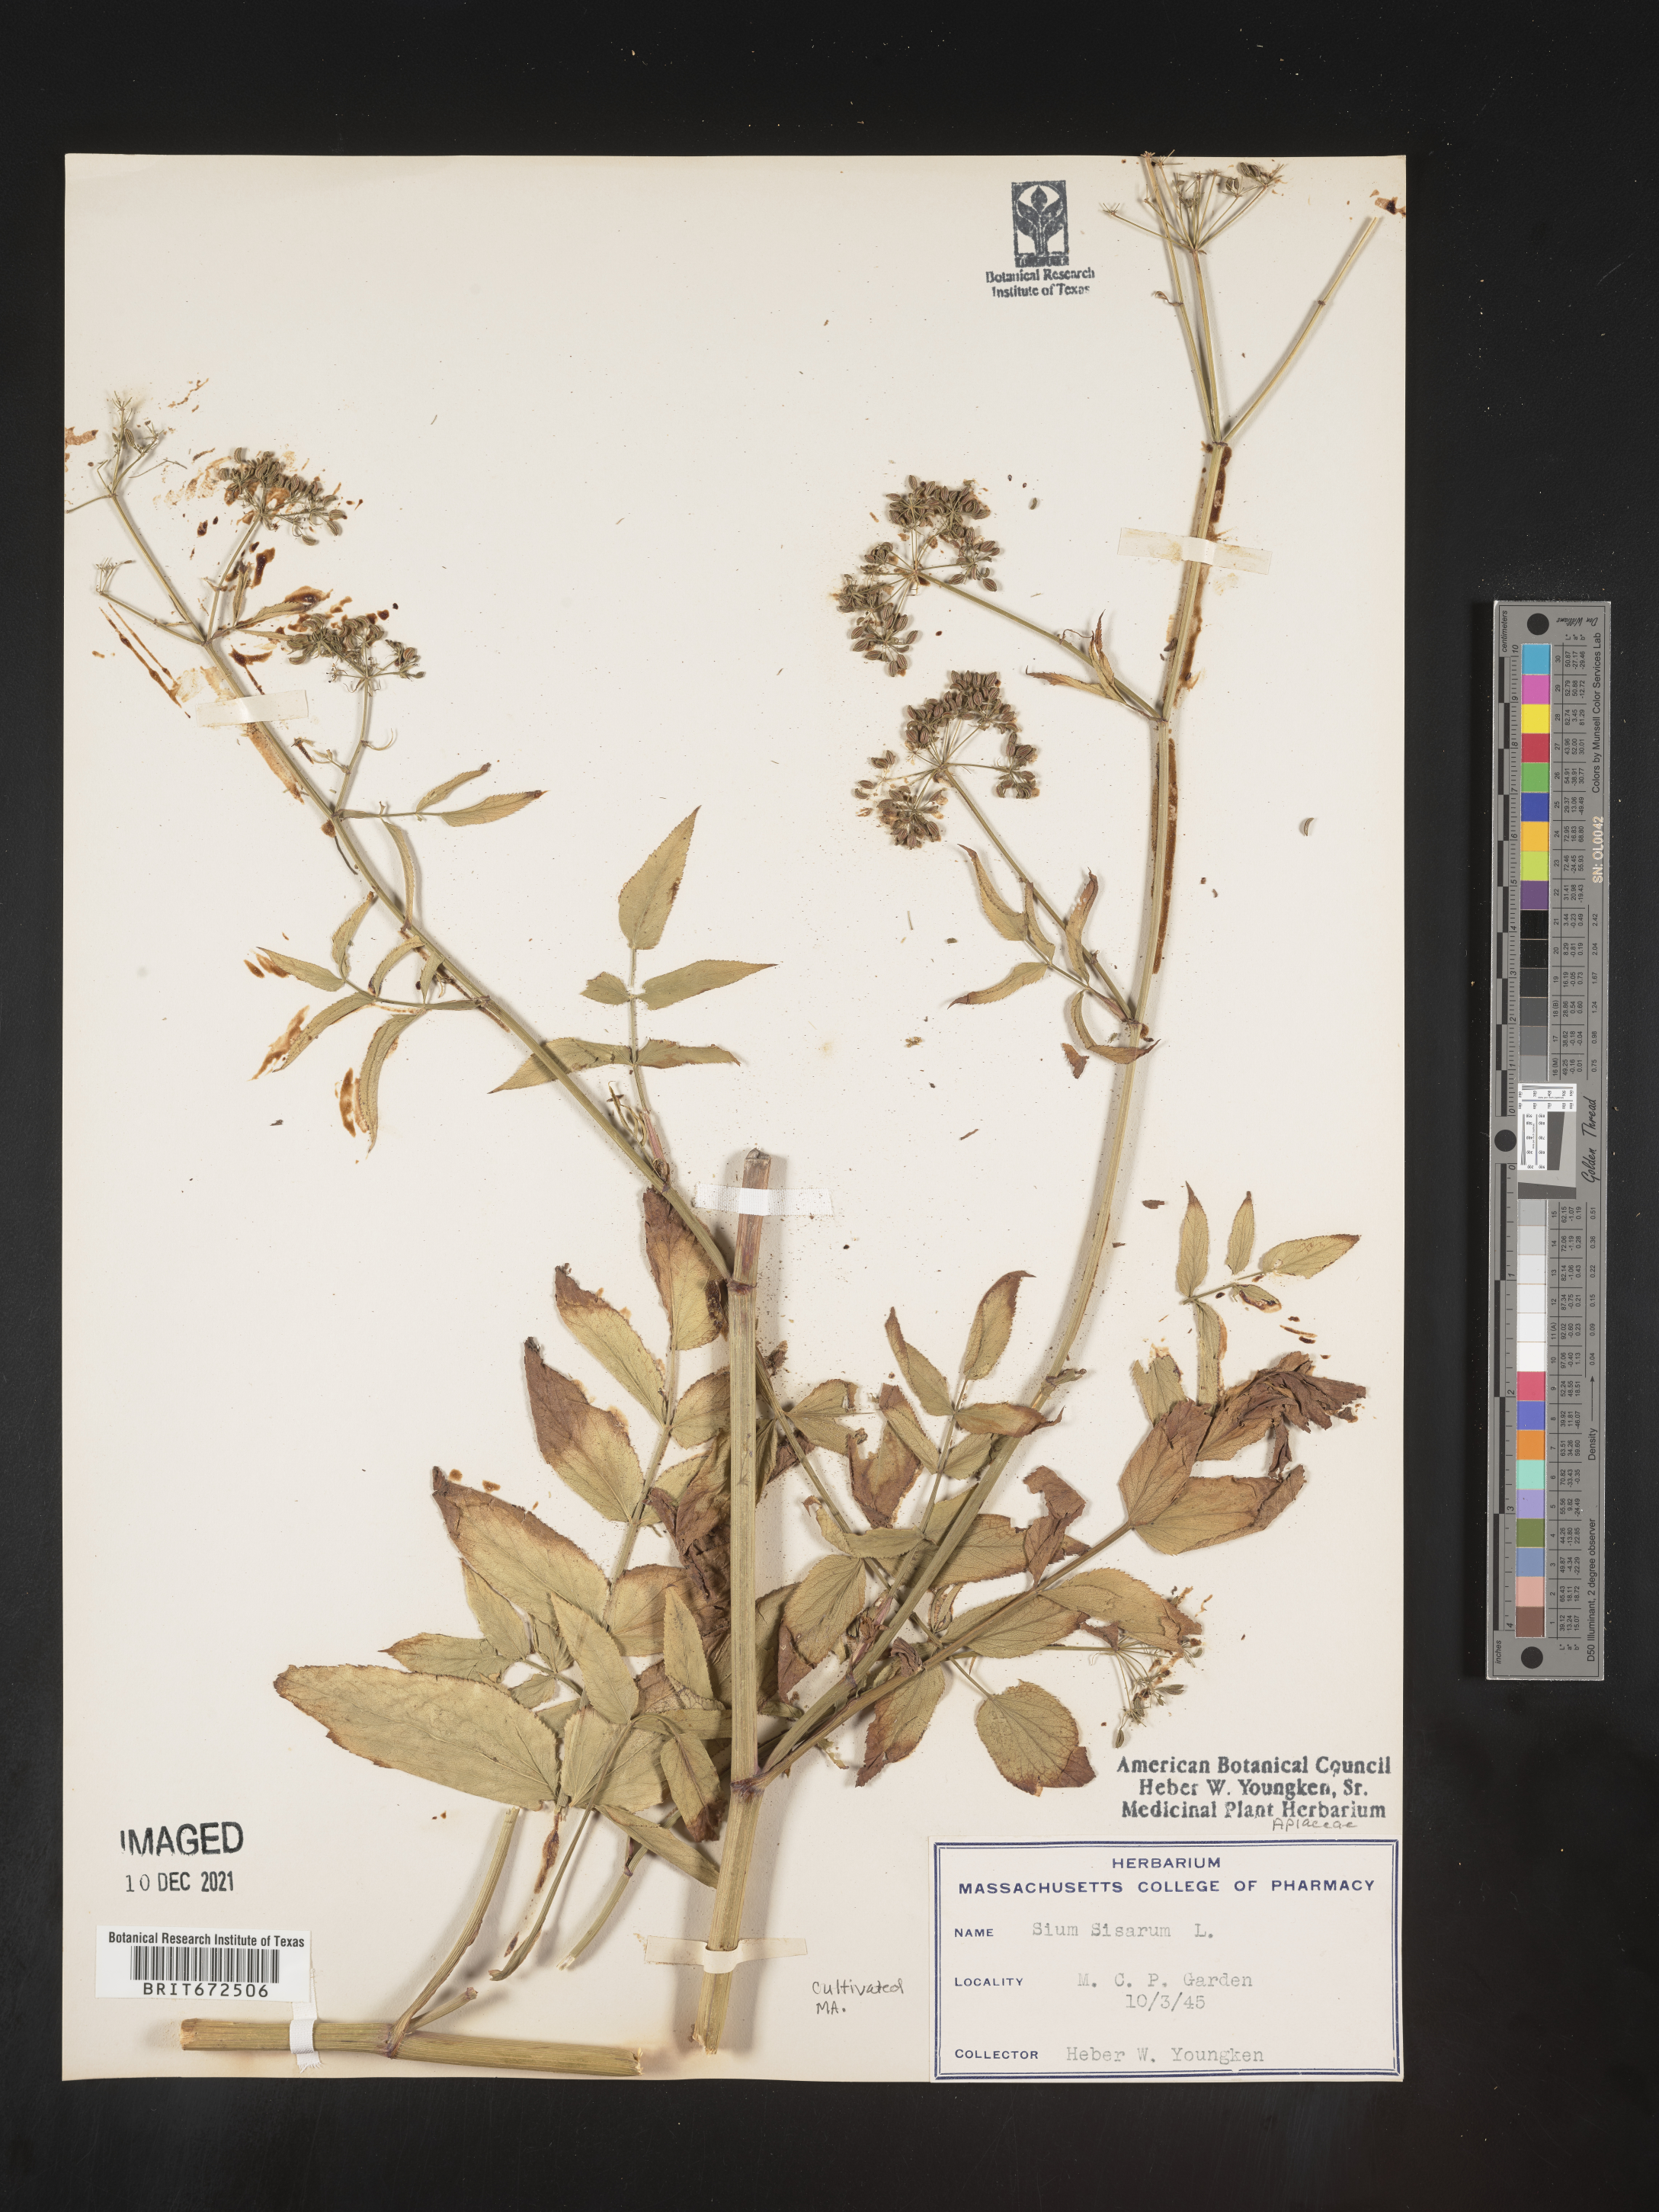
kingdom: Plantae
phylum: Tracheophyta
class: Magnoliopsida
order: Apiales
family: Apiaceae
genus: Sium
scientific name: Sium
